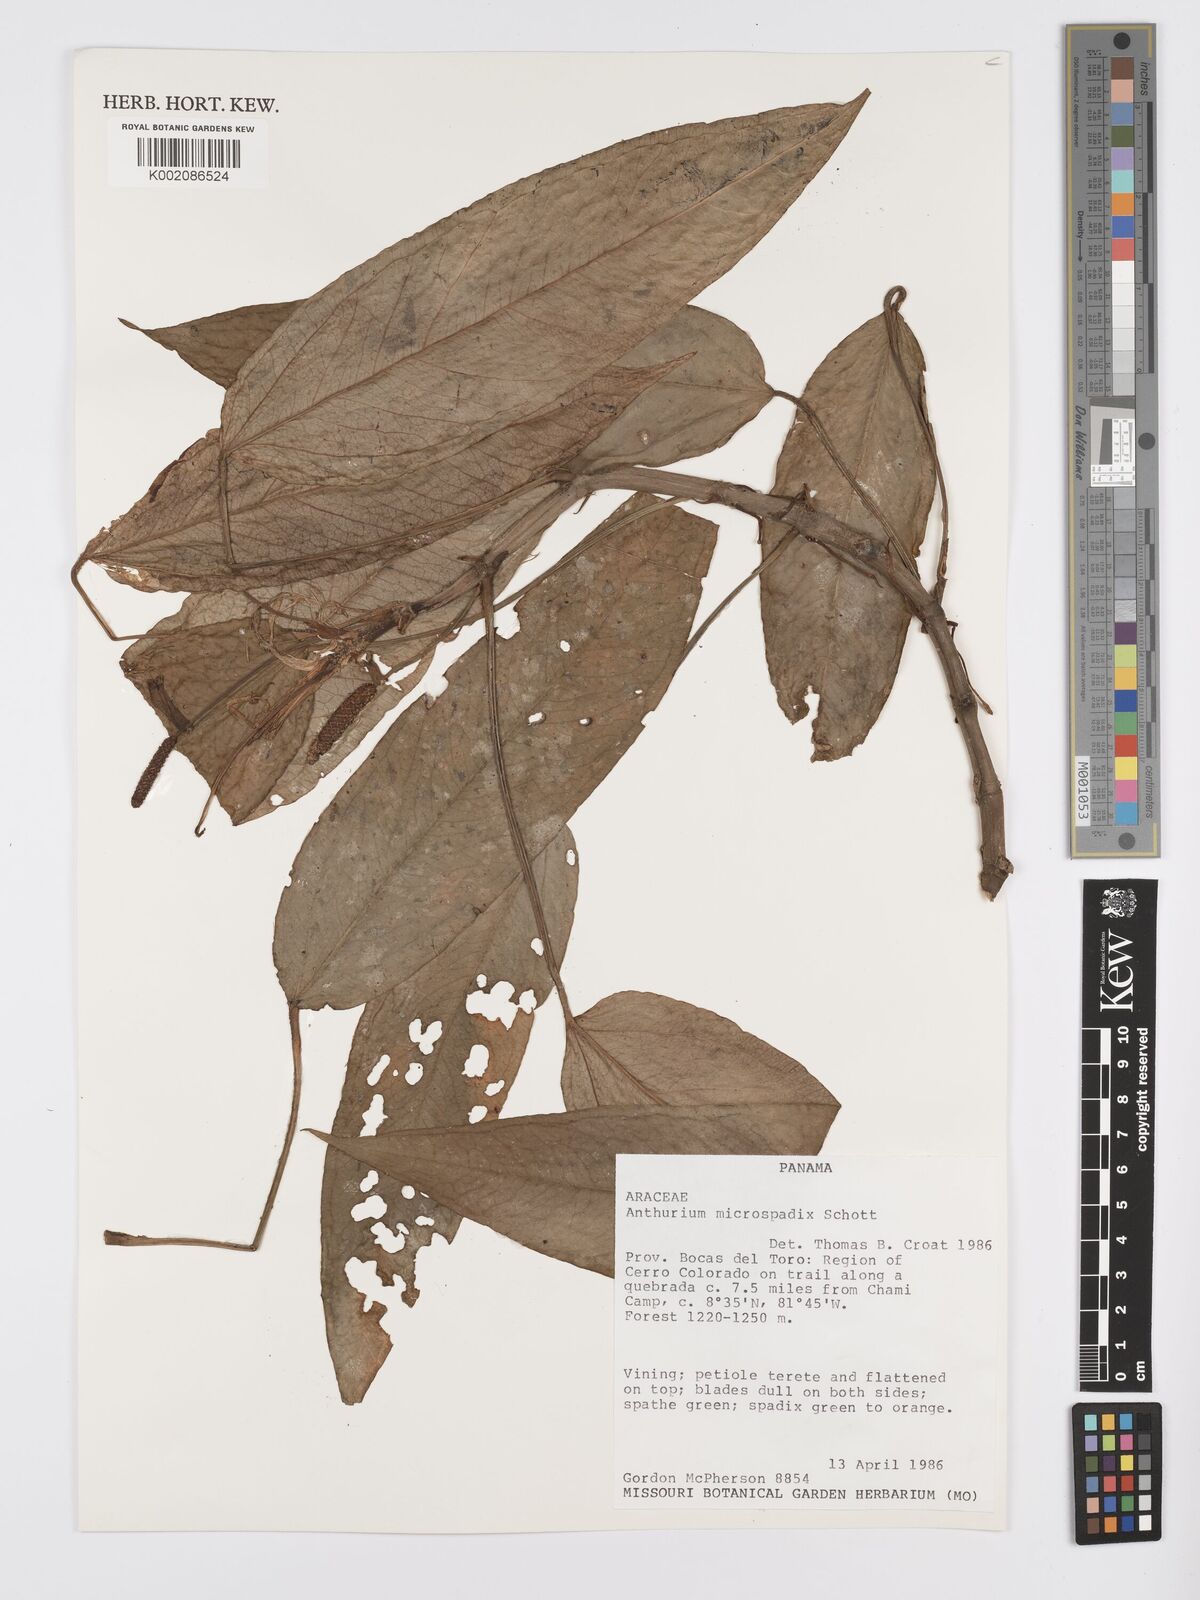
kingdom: Plantae
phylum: Tracheophyta
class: Liliopsida
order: Alismatales
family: Araceae
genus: Anthurium
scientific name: Anthurium microspadix
